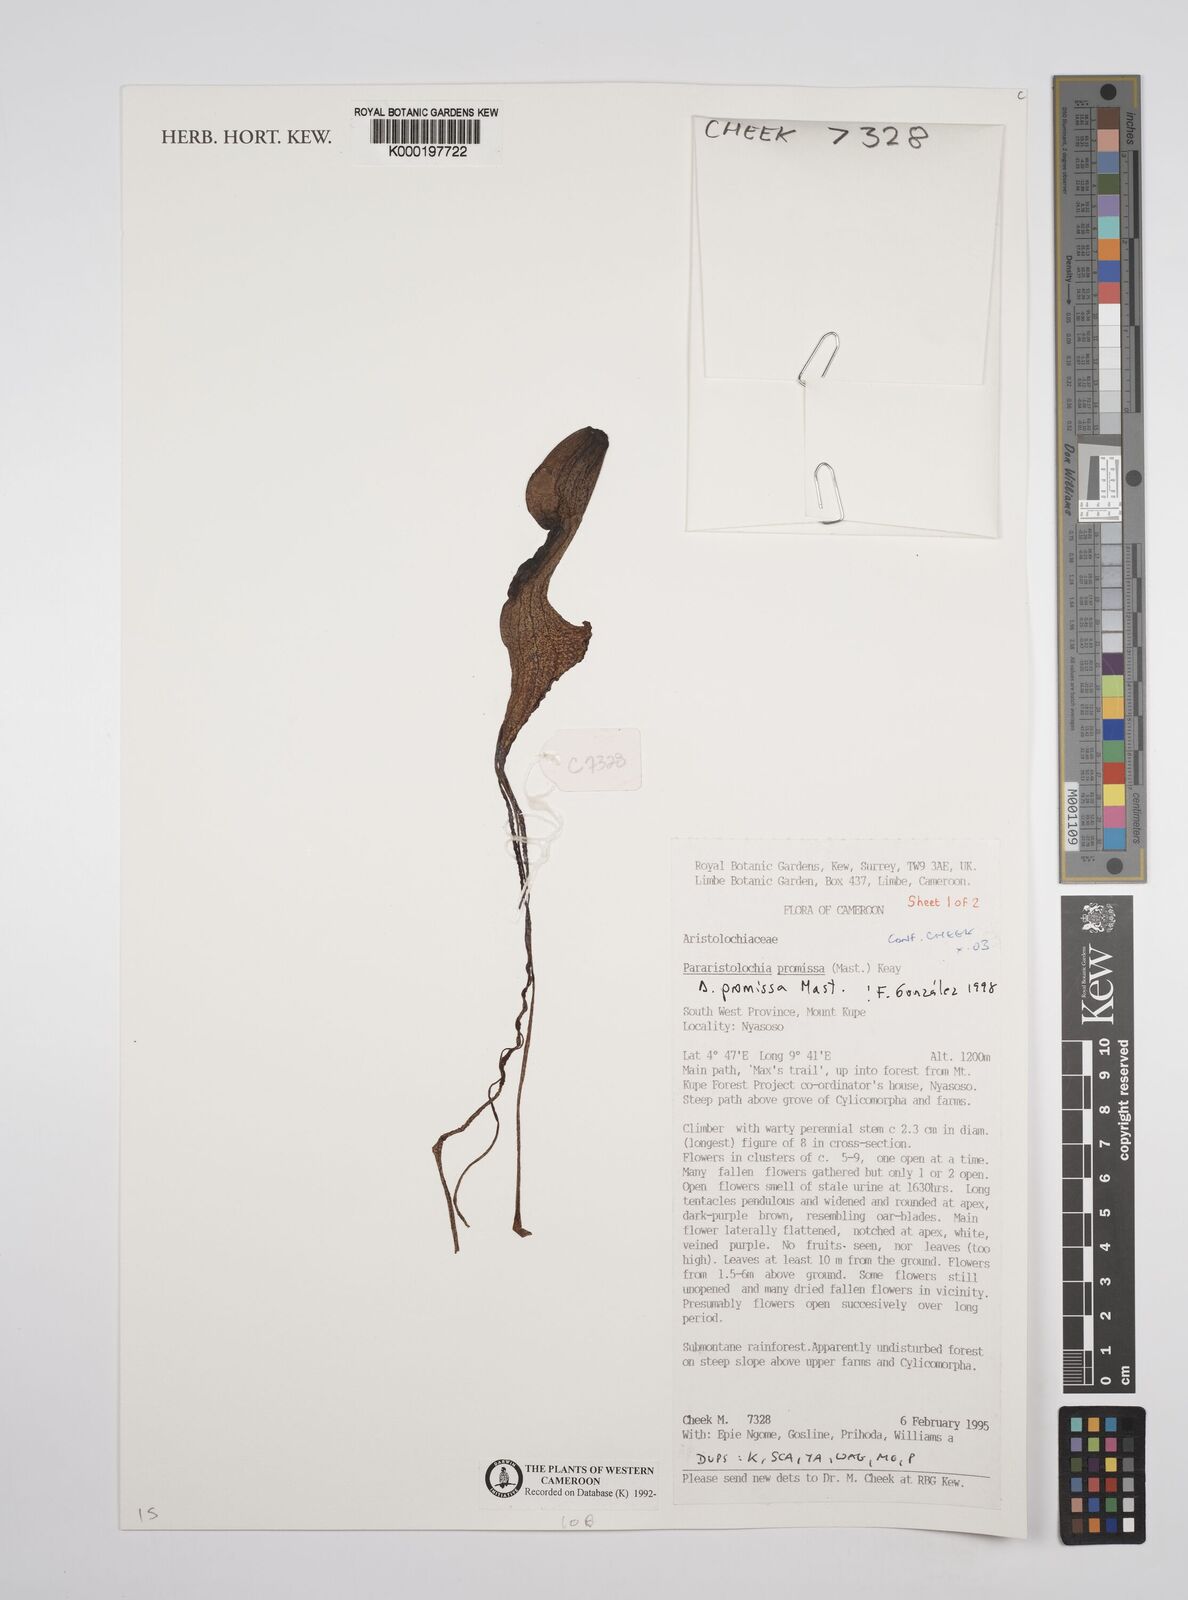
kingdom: Plantae
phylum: Tracheophyta
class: Magnoliopsida
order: Piperales
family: Aristolochiaceae
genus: Aristolochia
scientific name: Aristolochia promissa
